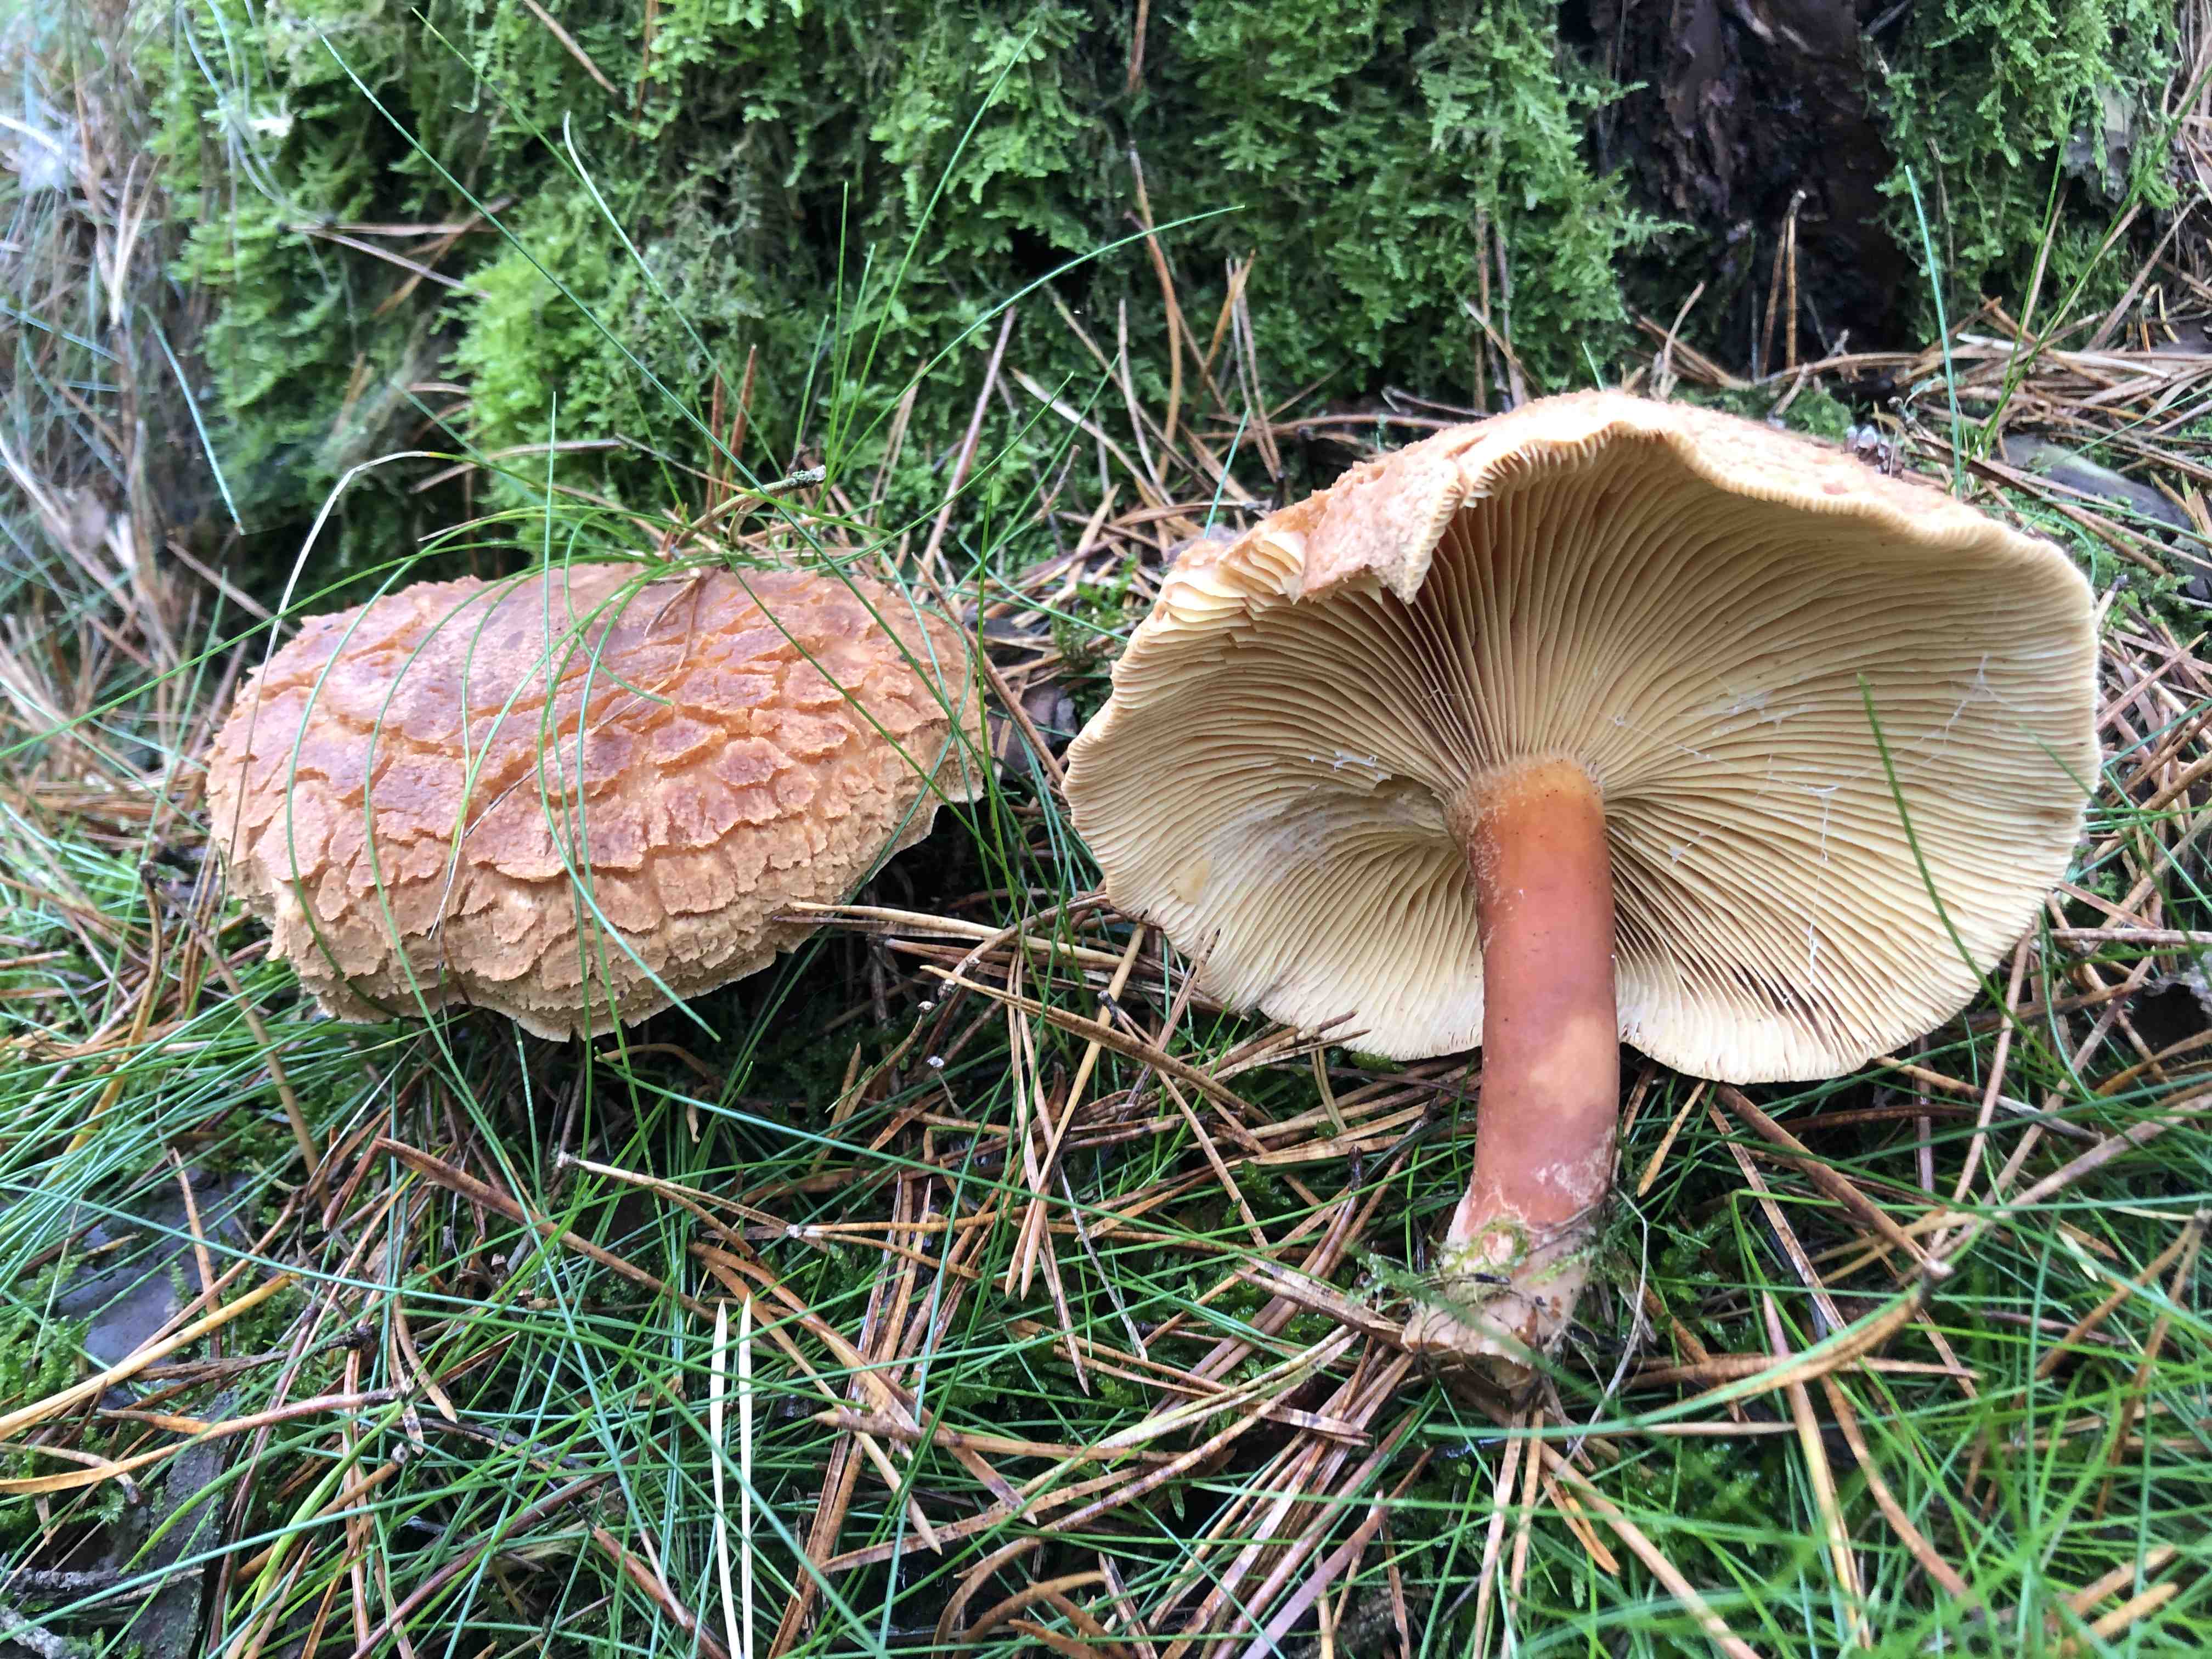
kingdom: Fungi
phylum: Basidiomycota
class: Agaricomycetes
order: Russulales
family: Russulaceae
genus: Lactarius
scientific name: Lactarius helvus
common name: mose-mælkehat
